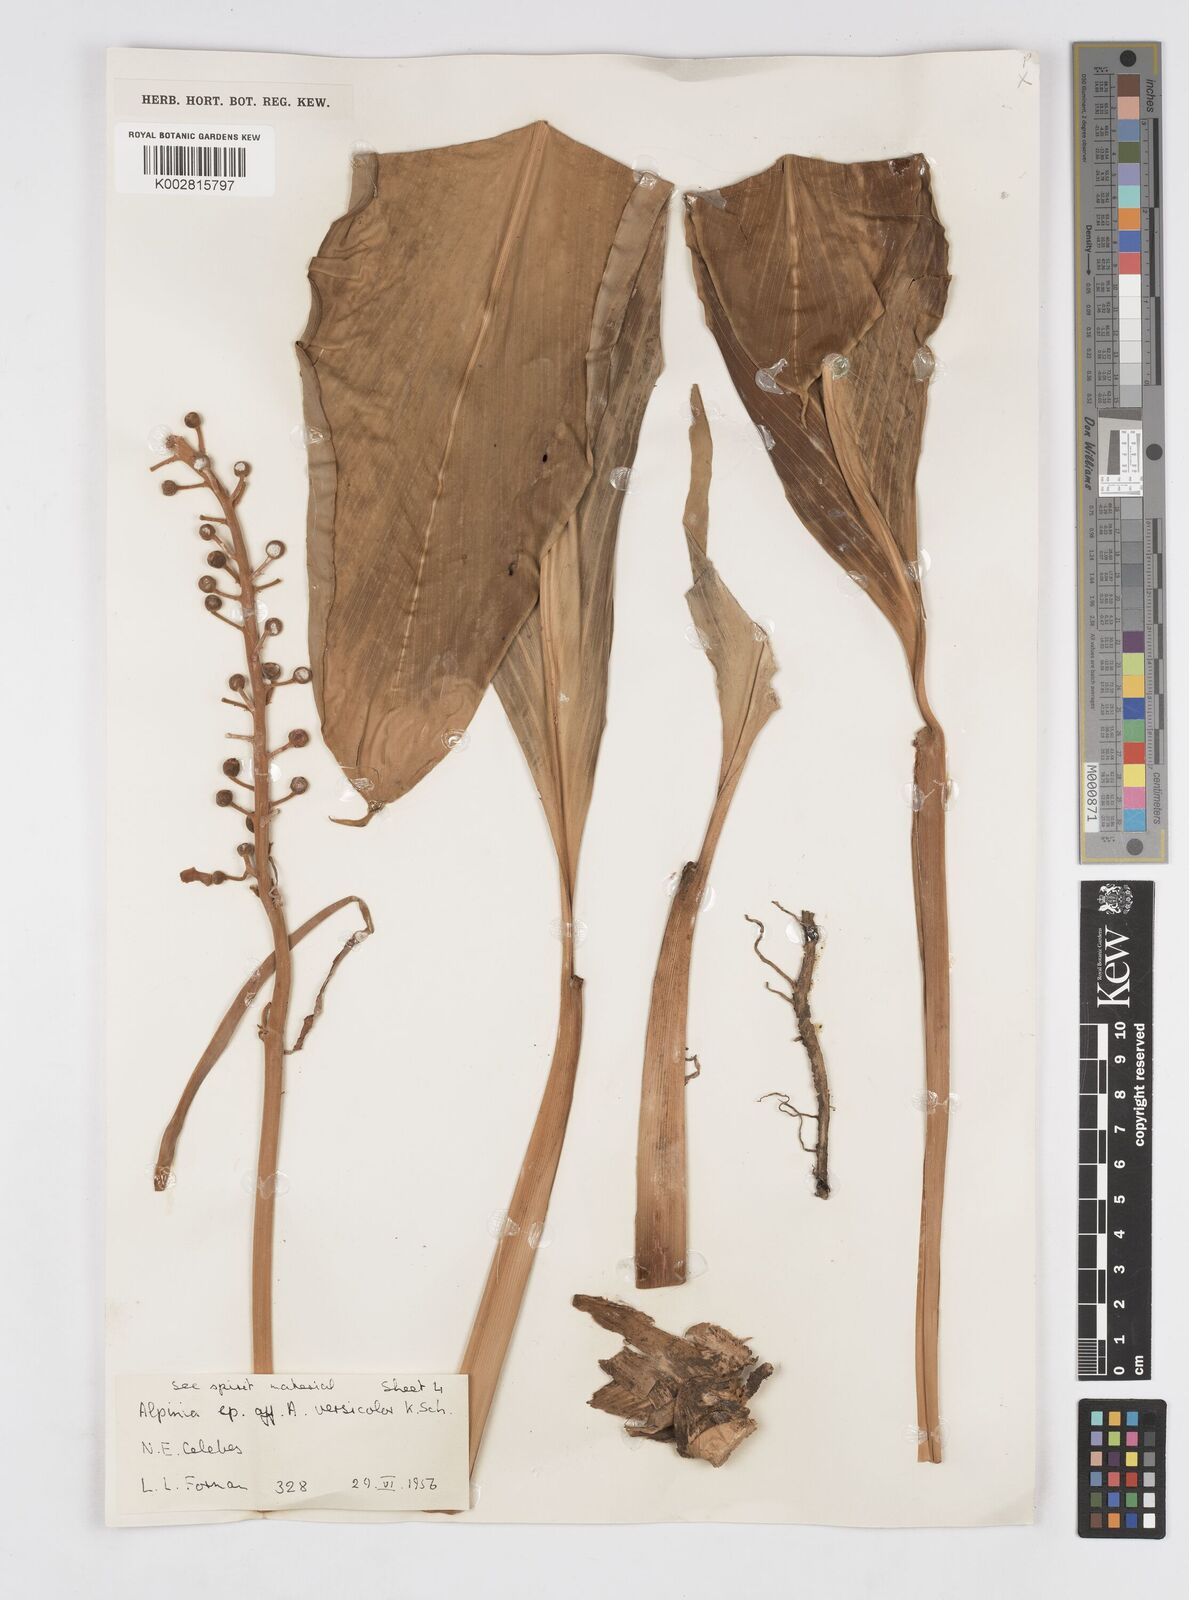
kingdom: Plantae
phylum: Tracheophyta
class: Liliopsida
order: Zingiberales
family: Zingiberaceae
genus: Alpinia
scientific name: Alpinia versicolor
